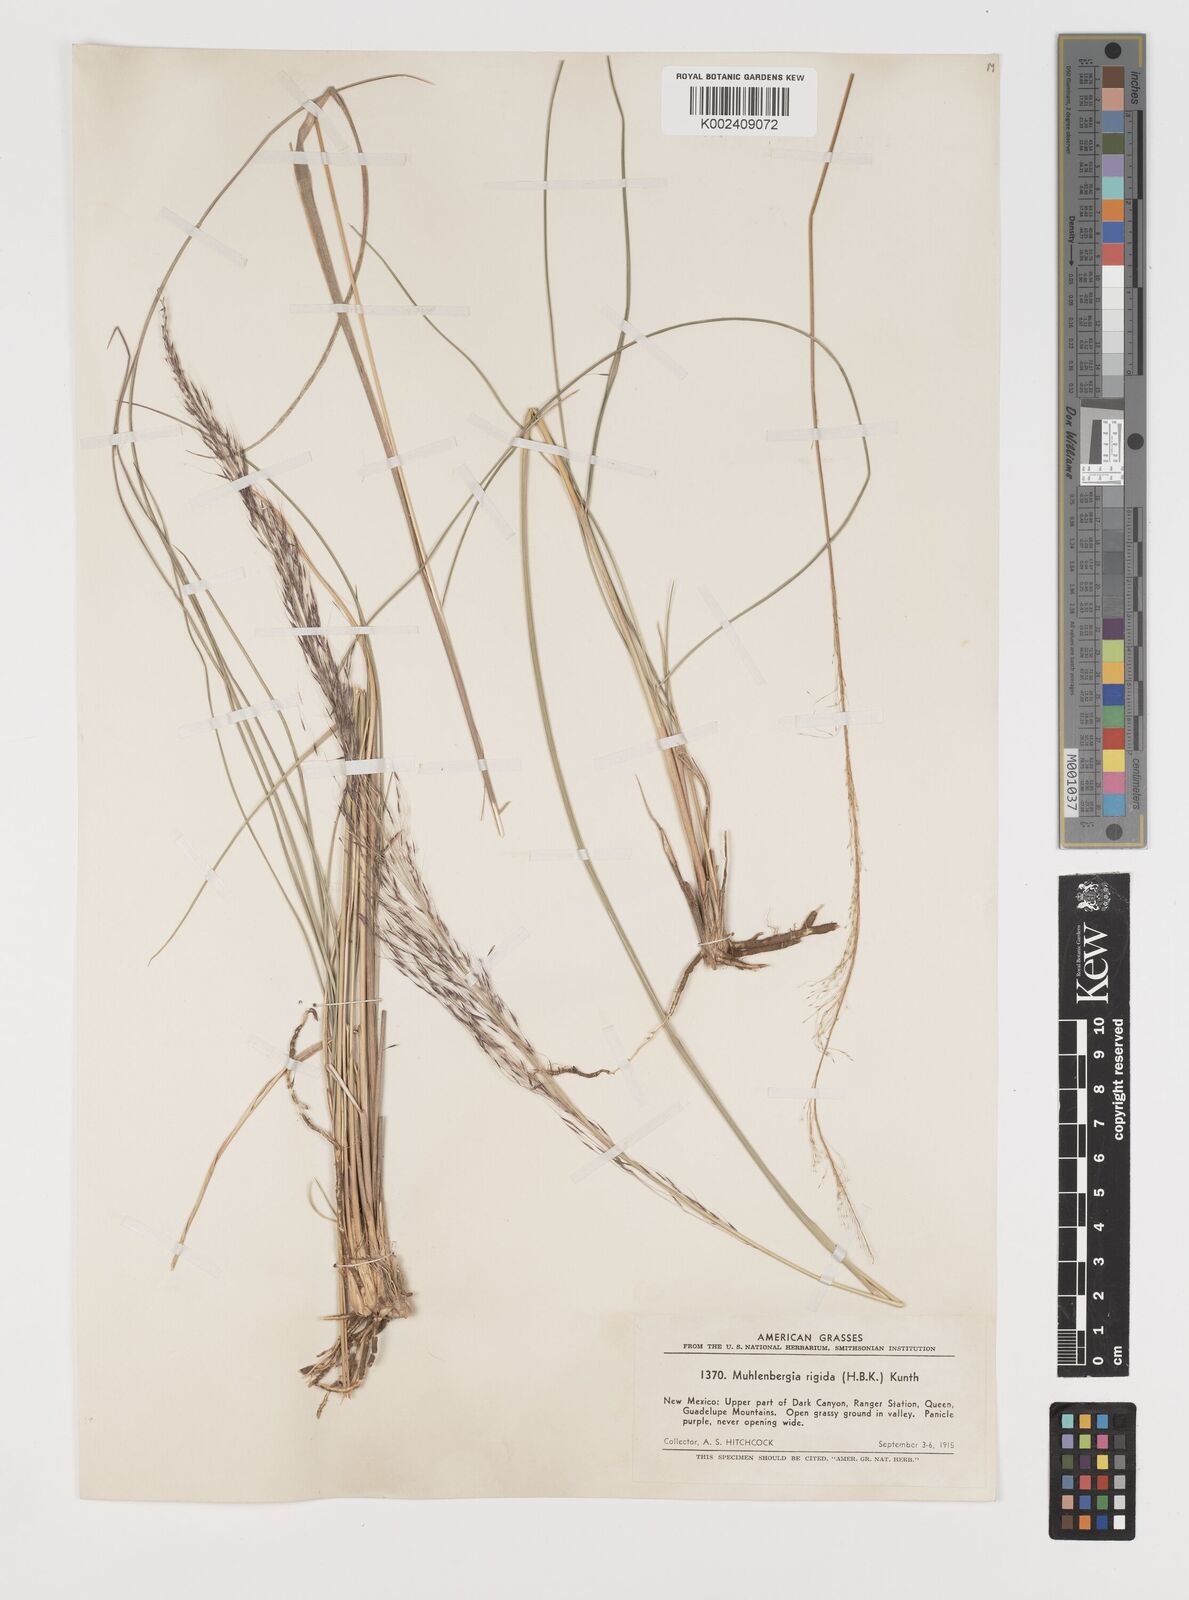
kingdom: Plantae
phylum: Tracheophyta
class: Liliopsida
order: Poales
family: Poaceae
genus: Muhlenbergia
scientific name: Muhlenbergia rigida
